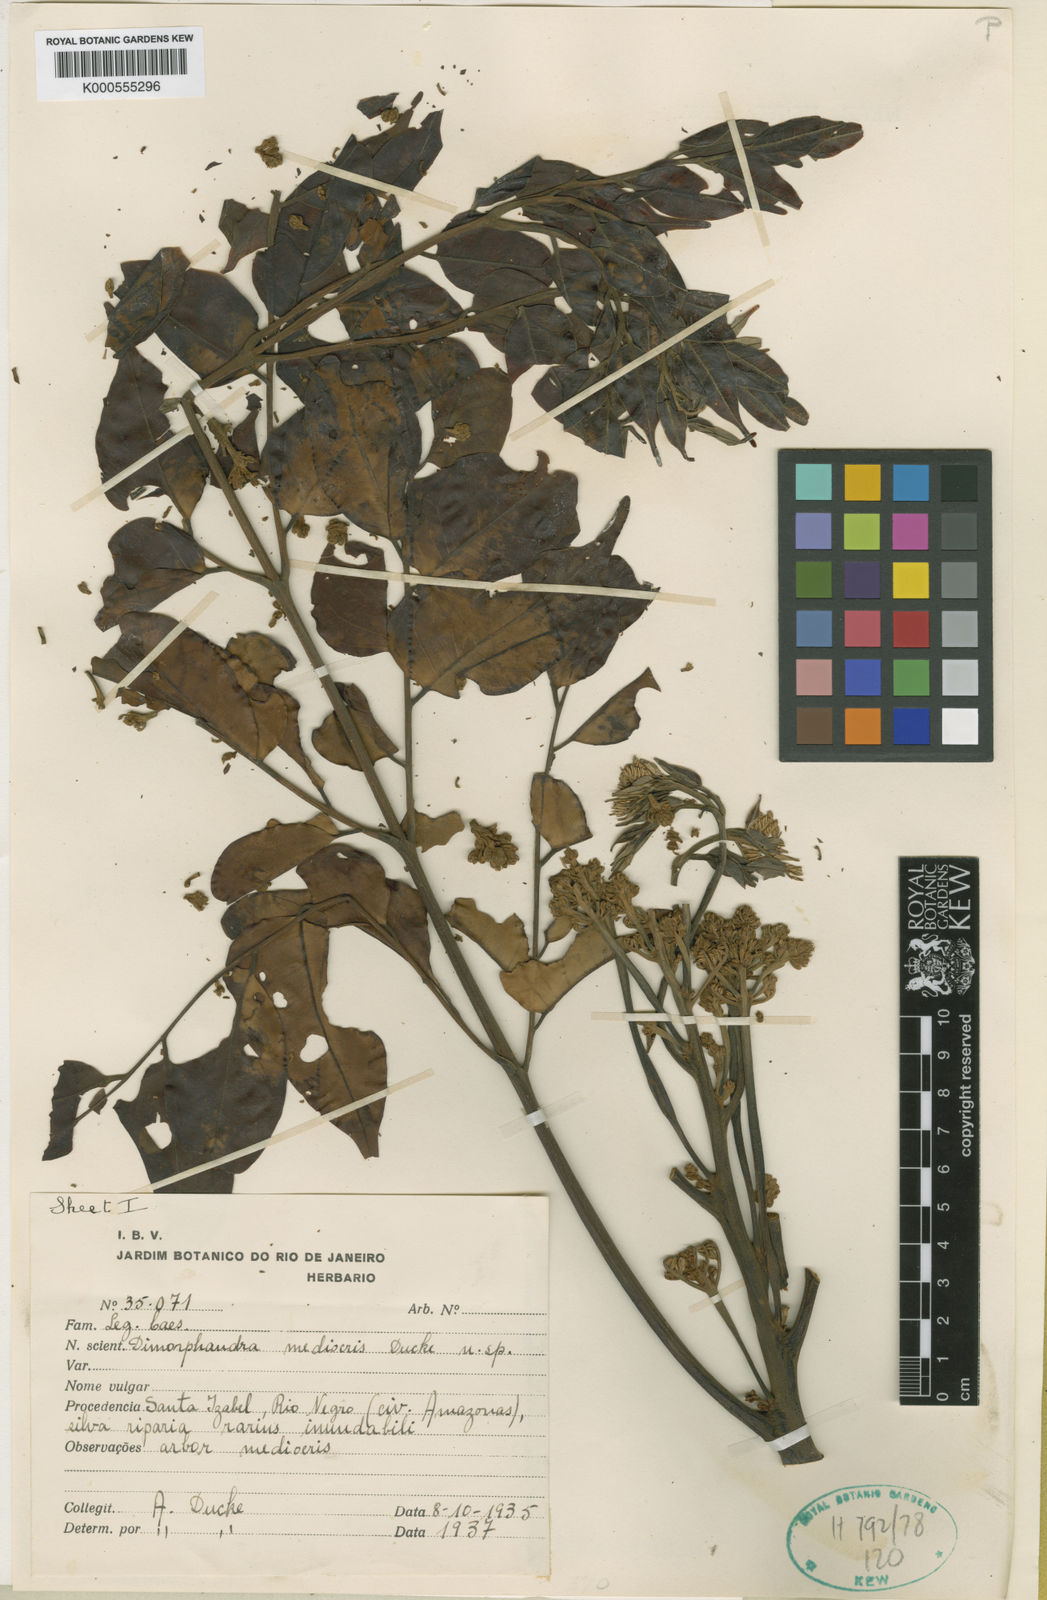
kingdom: Plantae
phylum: Tracheophyta
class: Magnoliopsida
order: Fabales
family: Fabaceae
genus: Dimorphandra
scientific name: Dimorphandra mediocris
